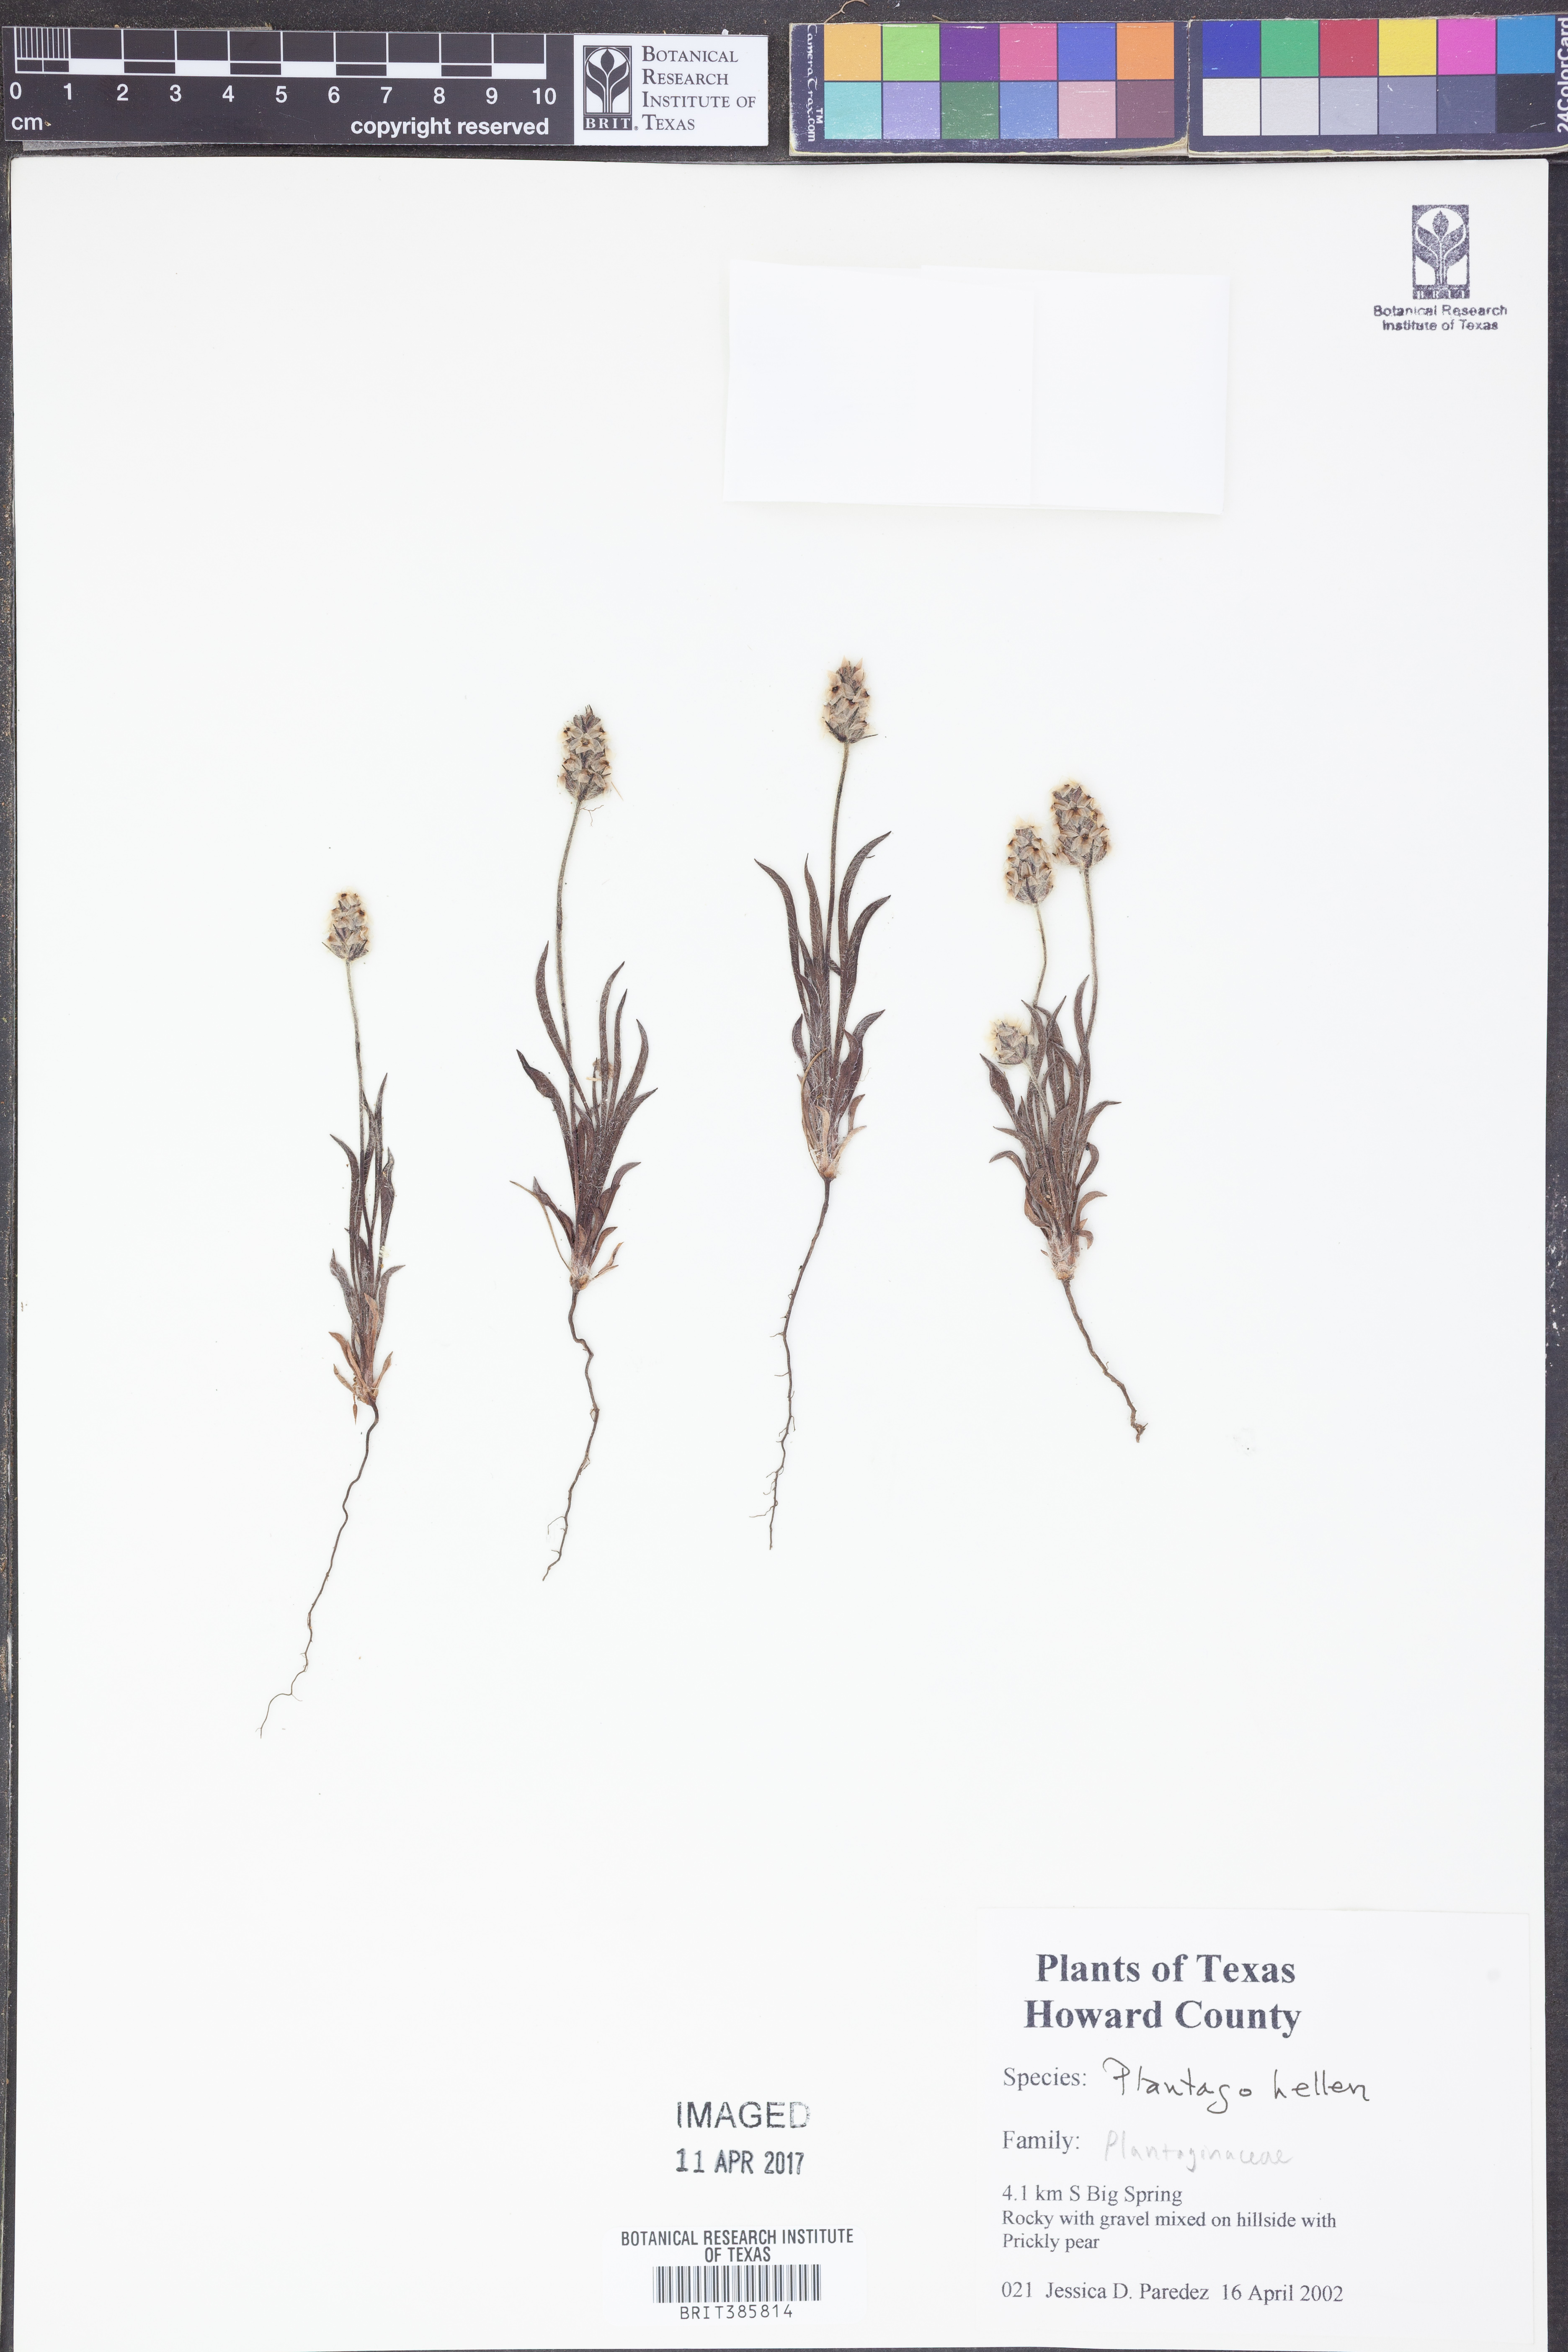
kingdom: Plantae
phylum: Tracheophyta
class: Magnoliopsida
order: Lamiales
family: Plantaginaceae
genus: Plantago
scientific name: Plantago helleri
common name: Heller's plantain
